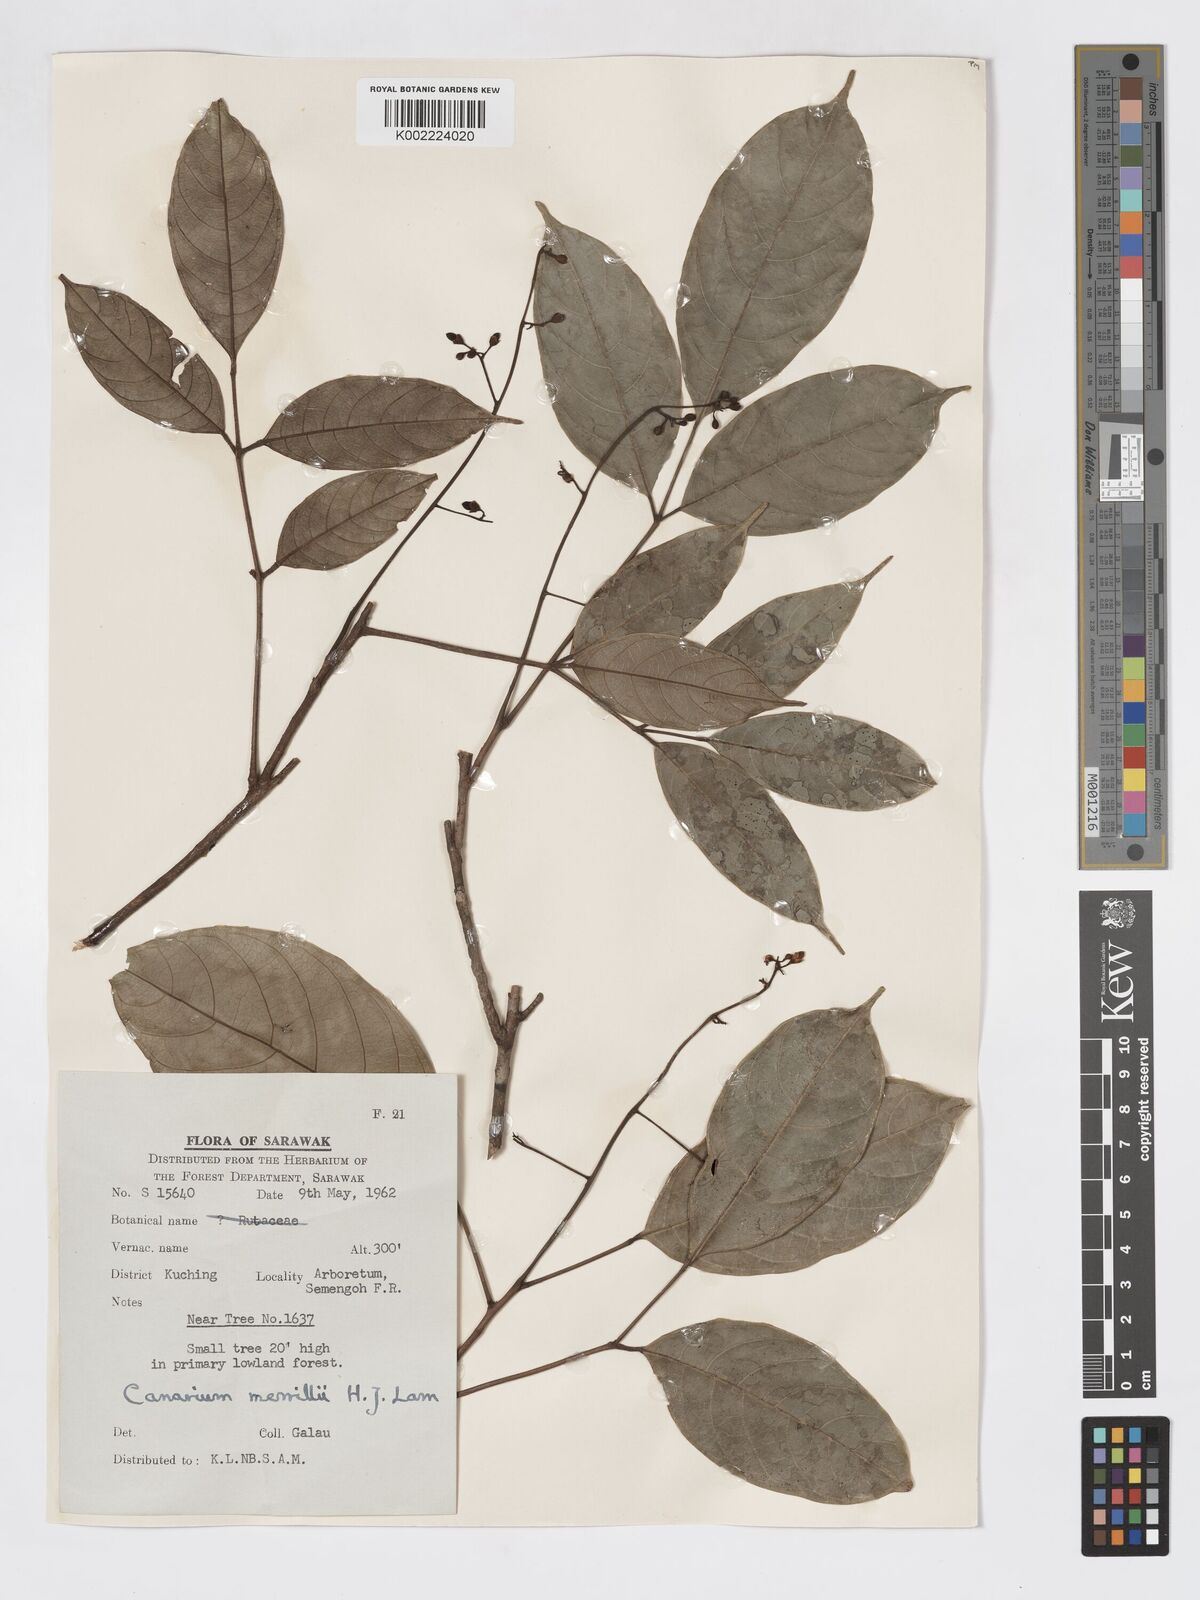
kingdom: Plantae
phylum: Tracheophyta
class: Magnoliopsida
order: Sapindales
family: Burseraceae
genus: Canarium
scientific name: Canarium merrillii
